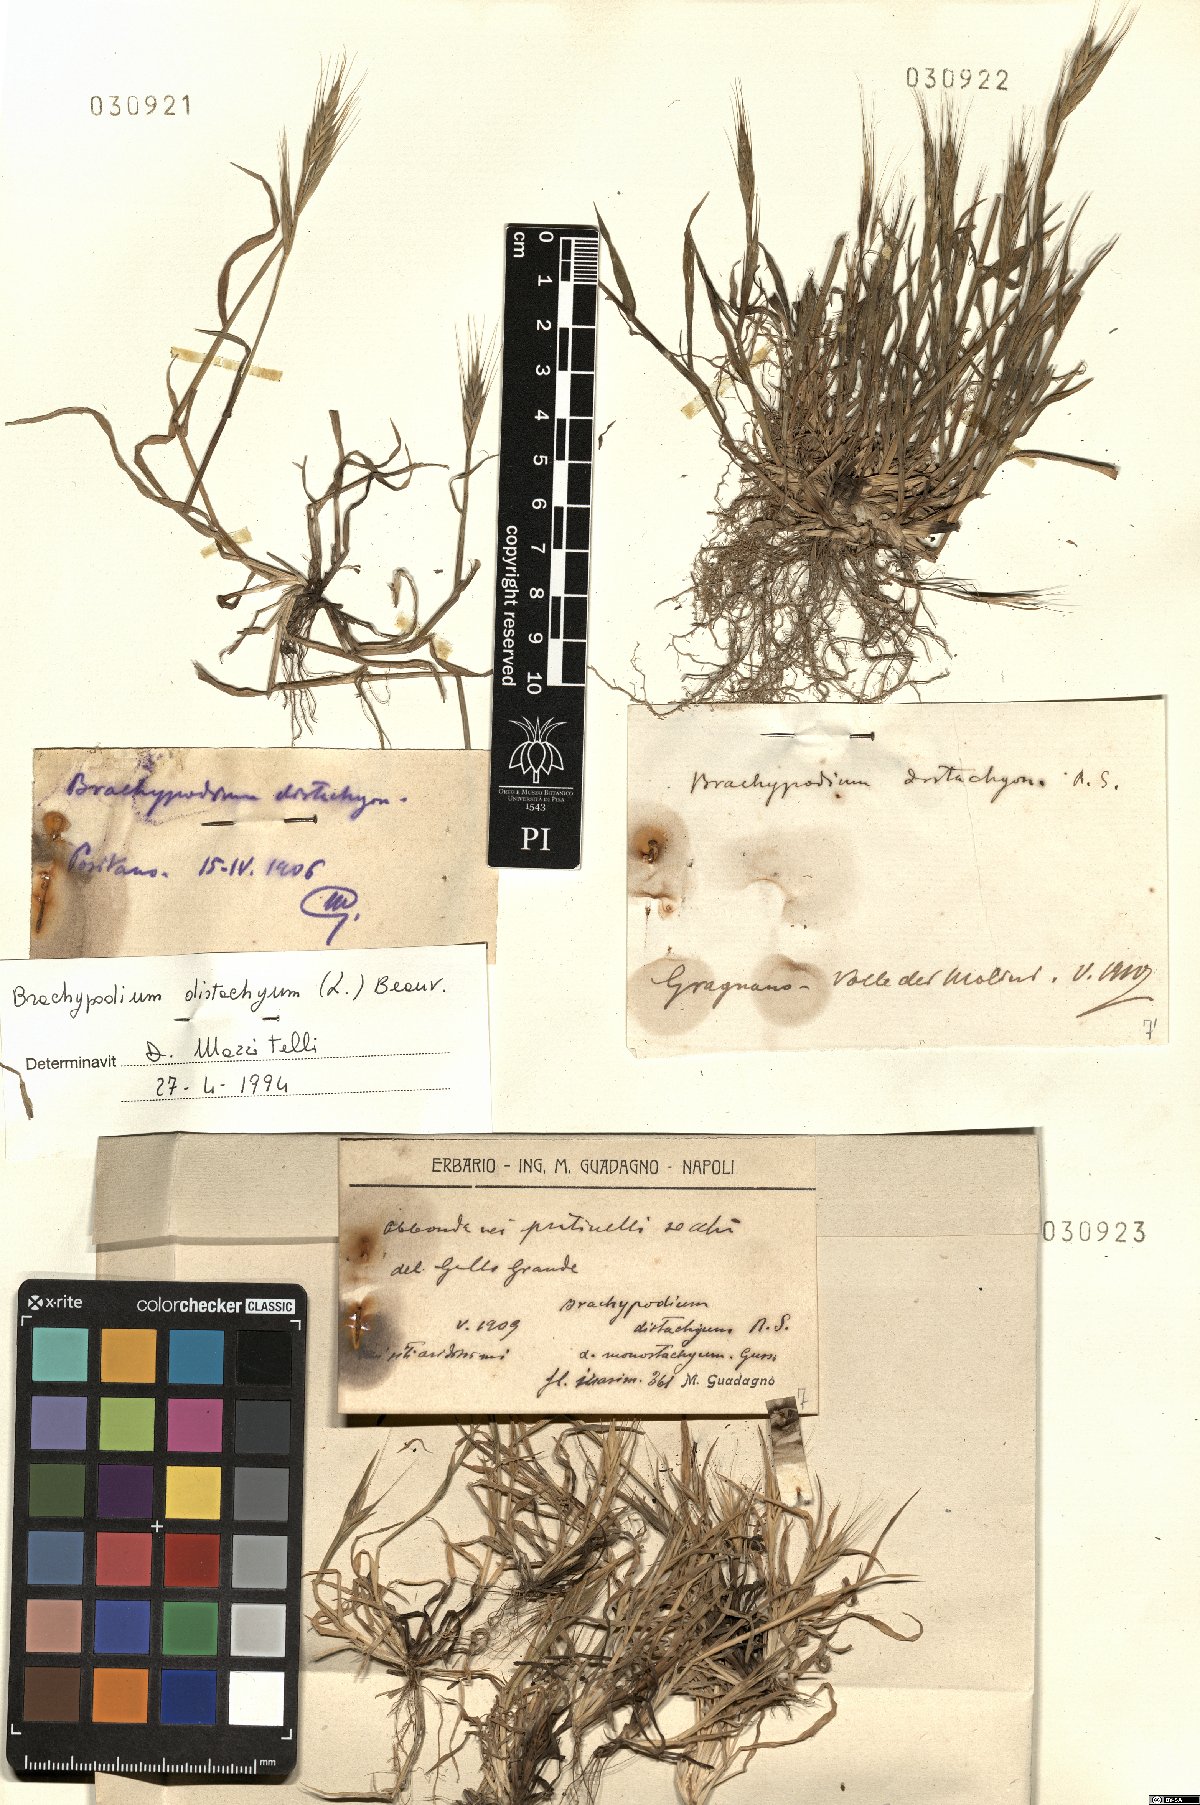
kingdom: Plantae
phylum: Tracheophyta
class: Liliopsida
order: Poales
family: Poaceae
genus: Brachypodium
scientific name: Brachypodium distachyon
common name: Stiff brome
